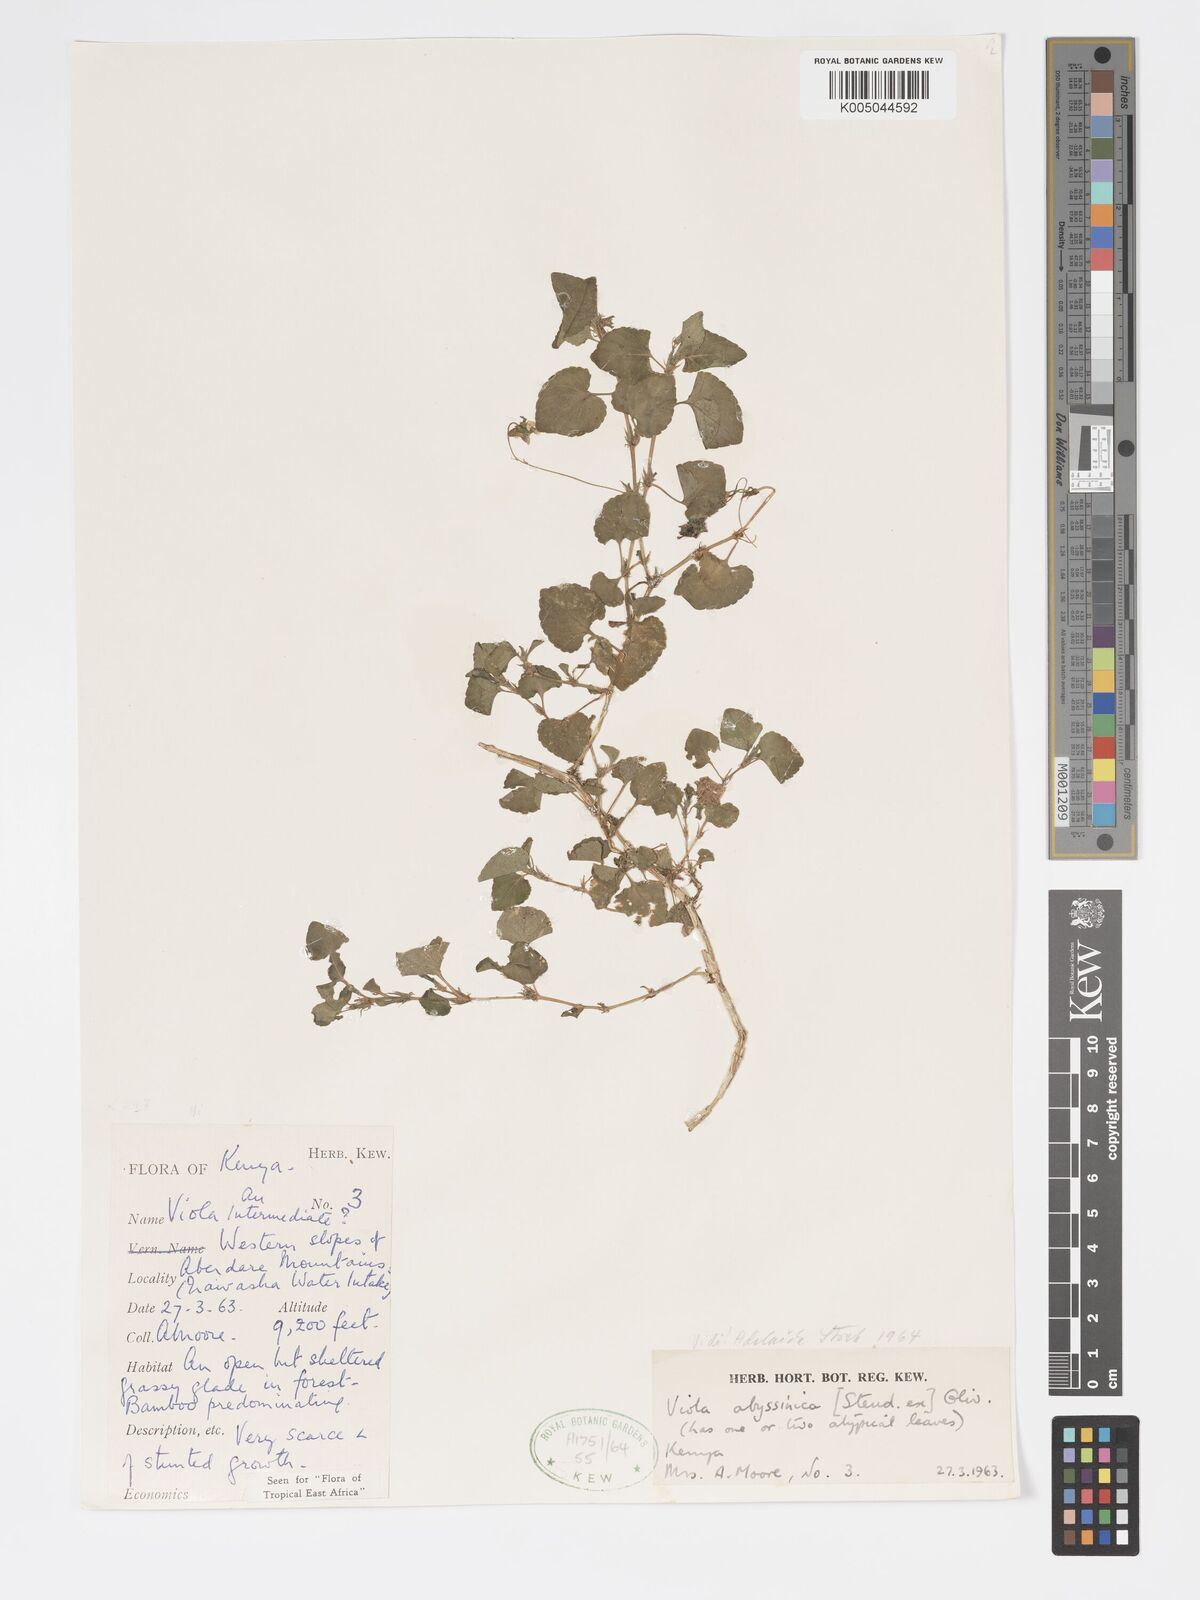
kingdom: Plantae
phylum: Tracheophyta
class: Magnoliopsida
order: Malpighiales
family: Violaceae
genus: Viola
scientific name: Viola abyssinica
